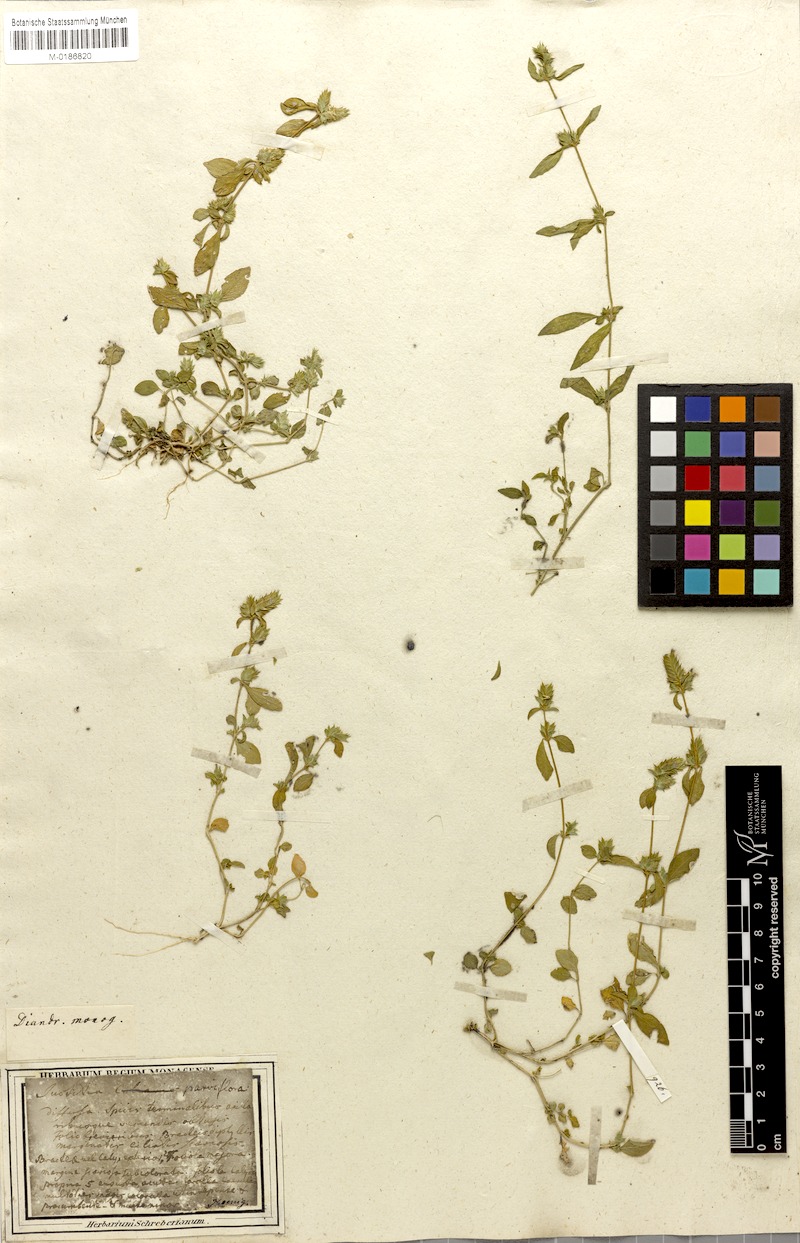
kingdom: Plantae
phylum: Tracheophyta
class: Magnoliopsida
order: Lamiales
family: Acanthaceae
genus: Rungia
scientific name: Rungia parviflora
